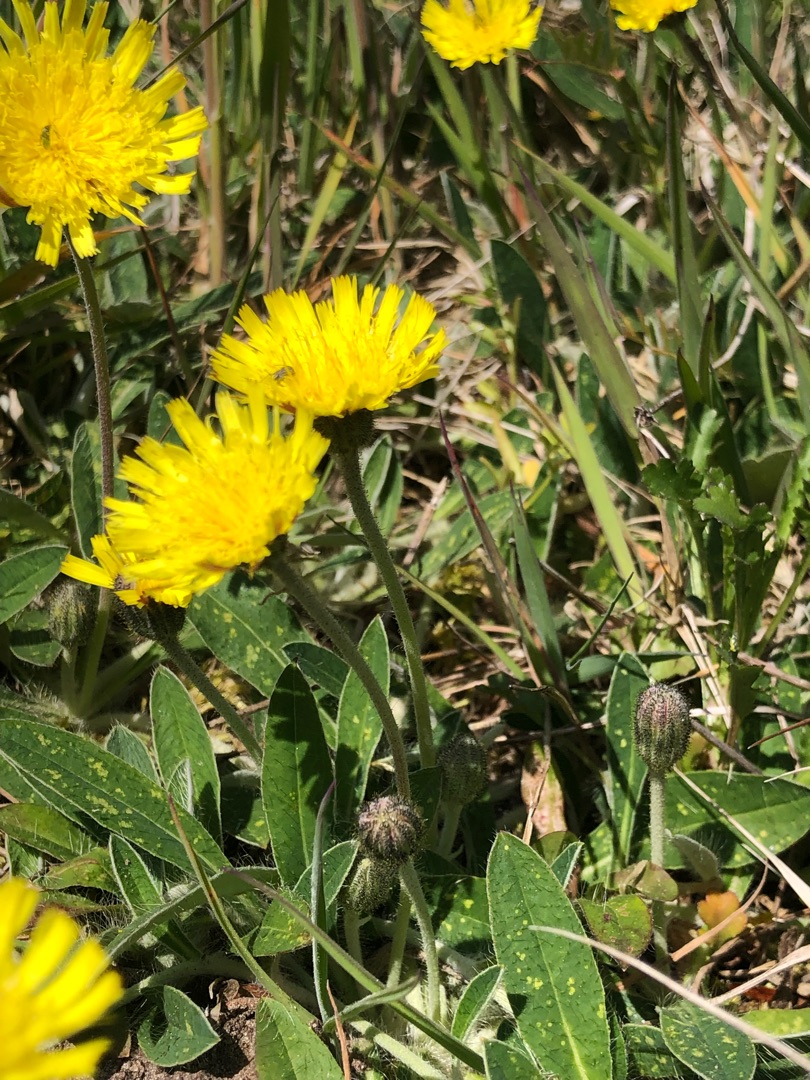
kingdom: Plantae
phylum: Tracheophyta
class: Magnoliopsida
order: Asterales
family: Asteraceae
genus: Pilosella
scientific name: Pilosella officinarum
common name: Håret høgeurt
